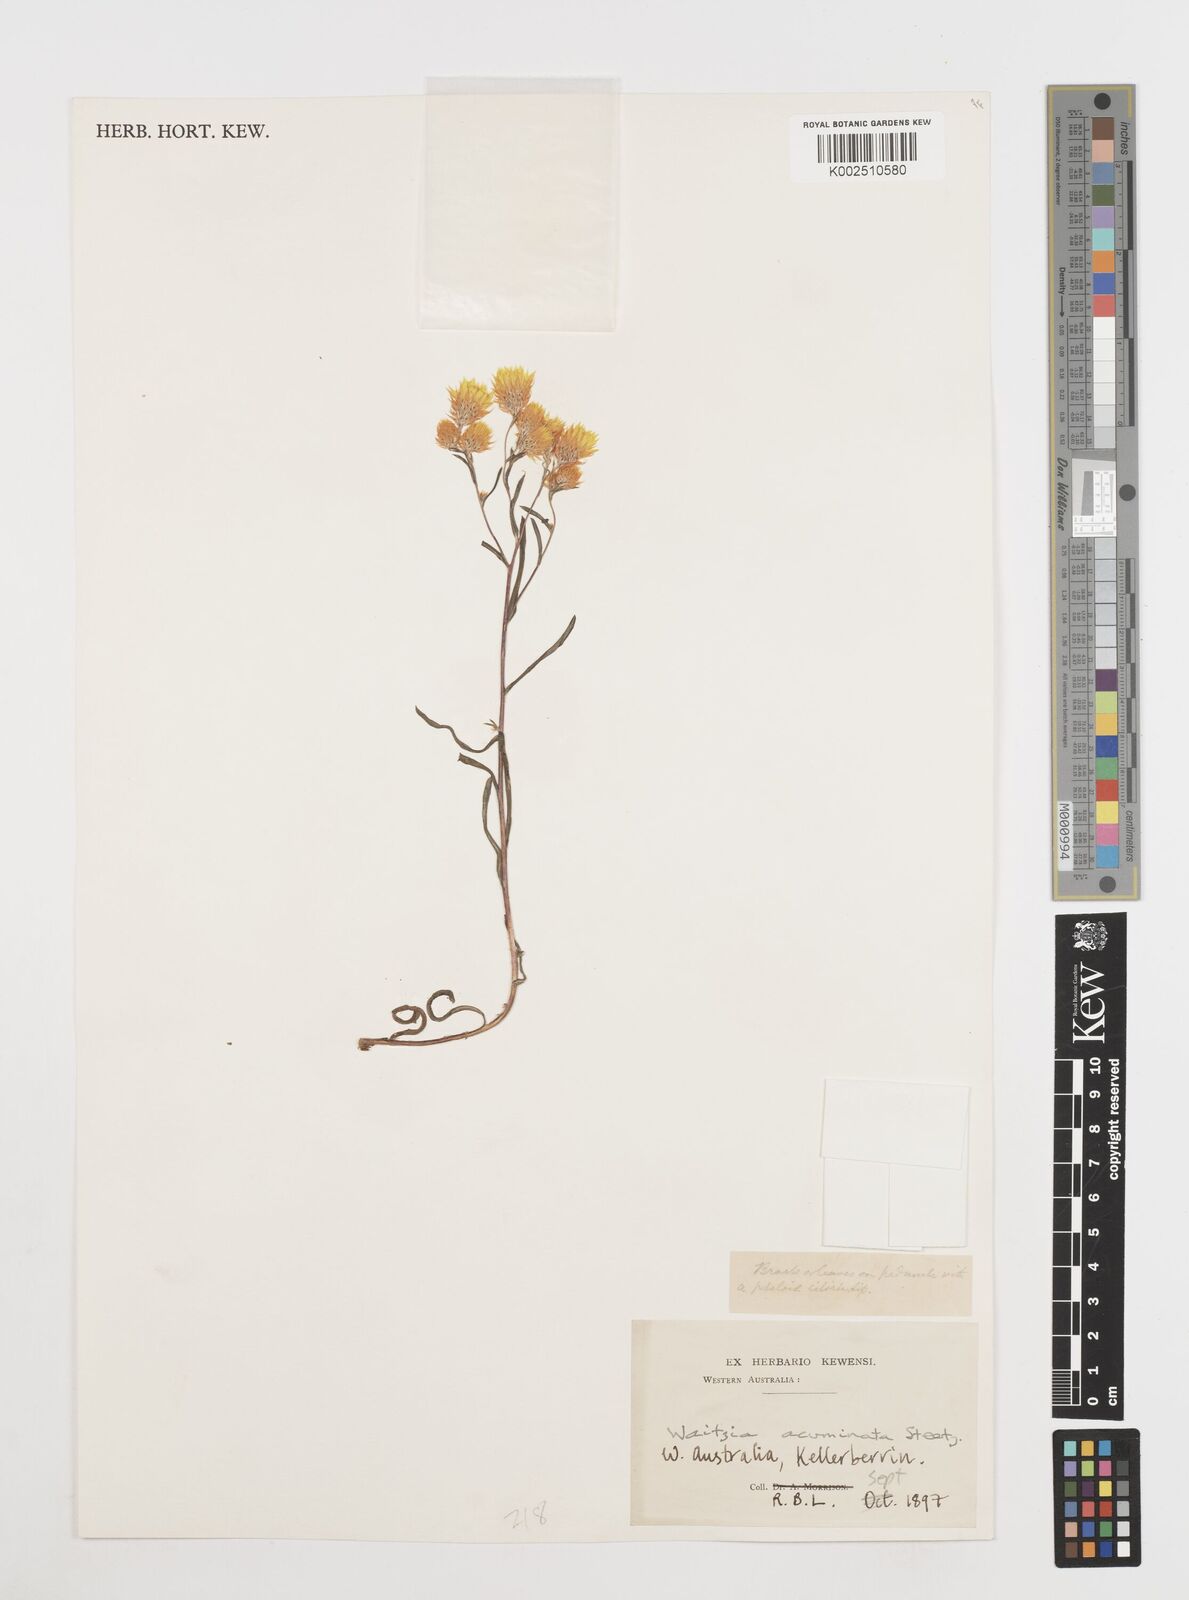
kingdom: Plantae
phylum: Tracheophyta
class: Magnoliopsida
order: Asterales
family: Asteraceae
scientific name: Asteraceae
